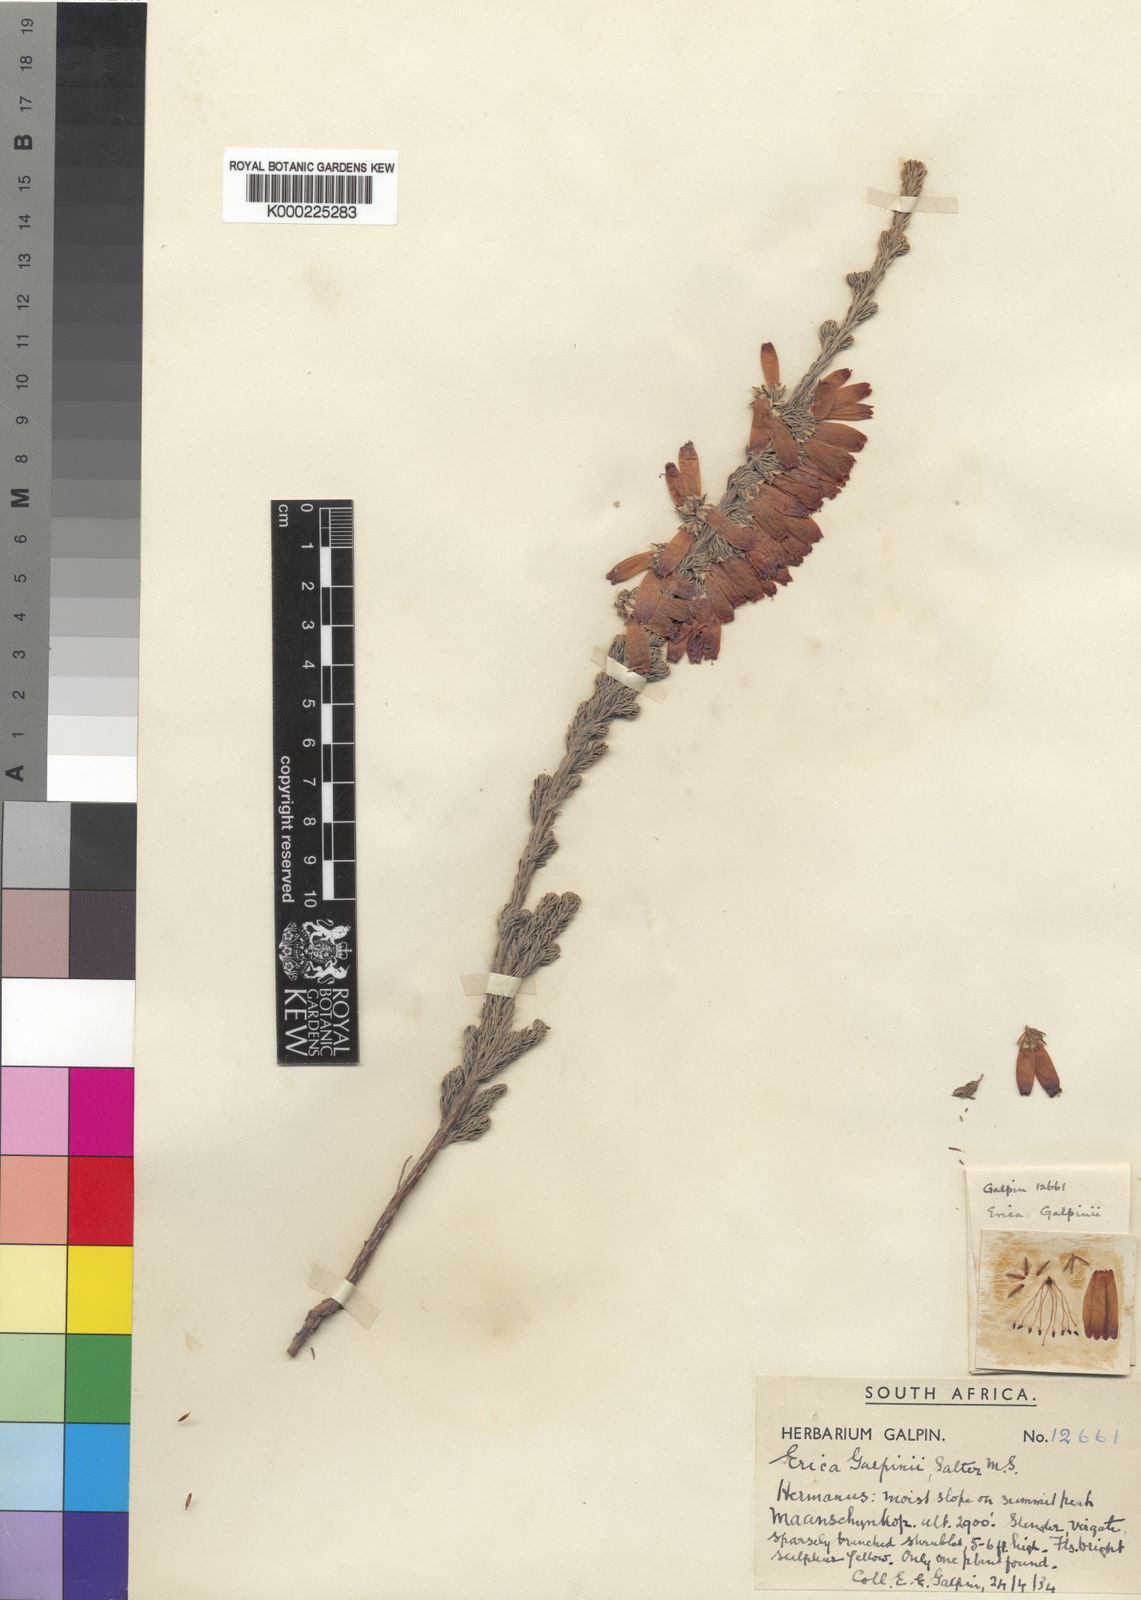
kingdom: Plantae
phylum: Tracheophyta
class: Magnoliopsida
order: Ericales
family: Ericaceae
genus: Erica
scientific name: Erica galpinii
